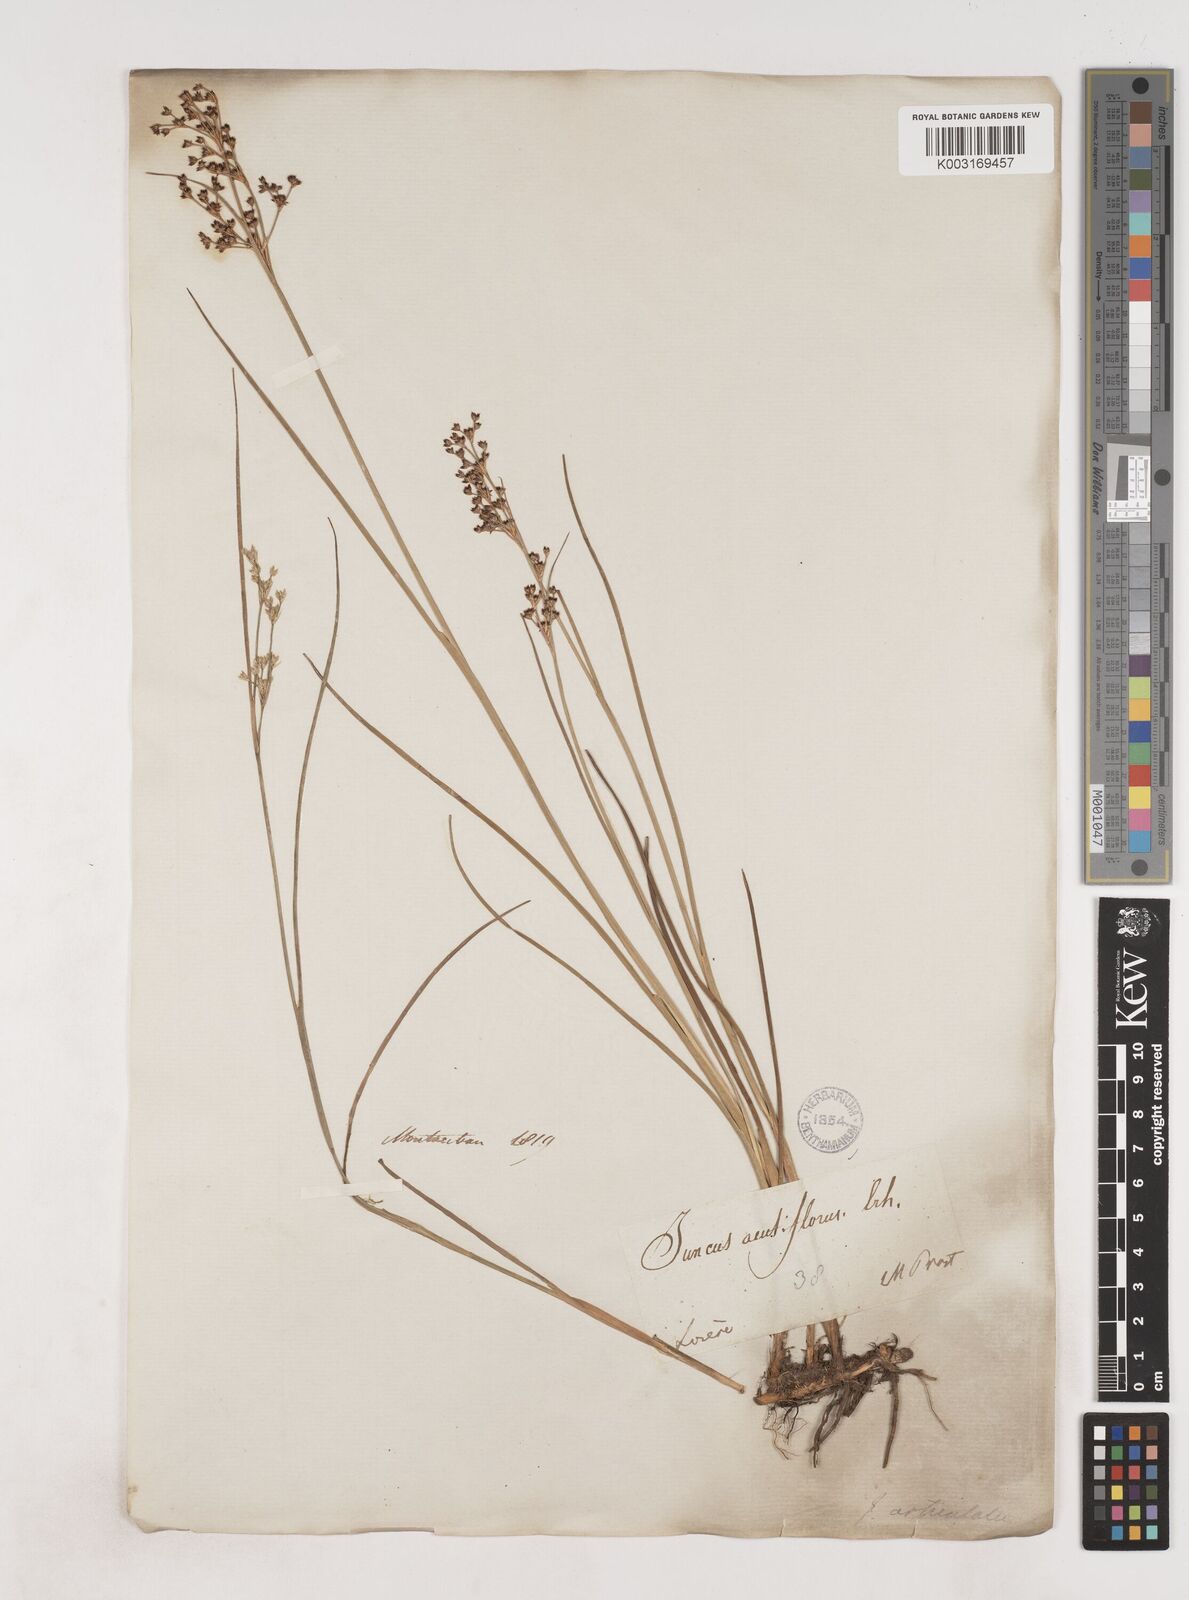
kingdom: Plantae
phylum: Tracheophyta
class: Liliopsida
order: Poales
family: Juncaceae
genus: Juncus
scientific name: Juncus acutiflorus
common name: Sharp-flowered rush
